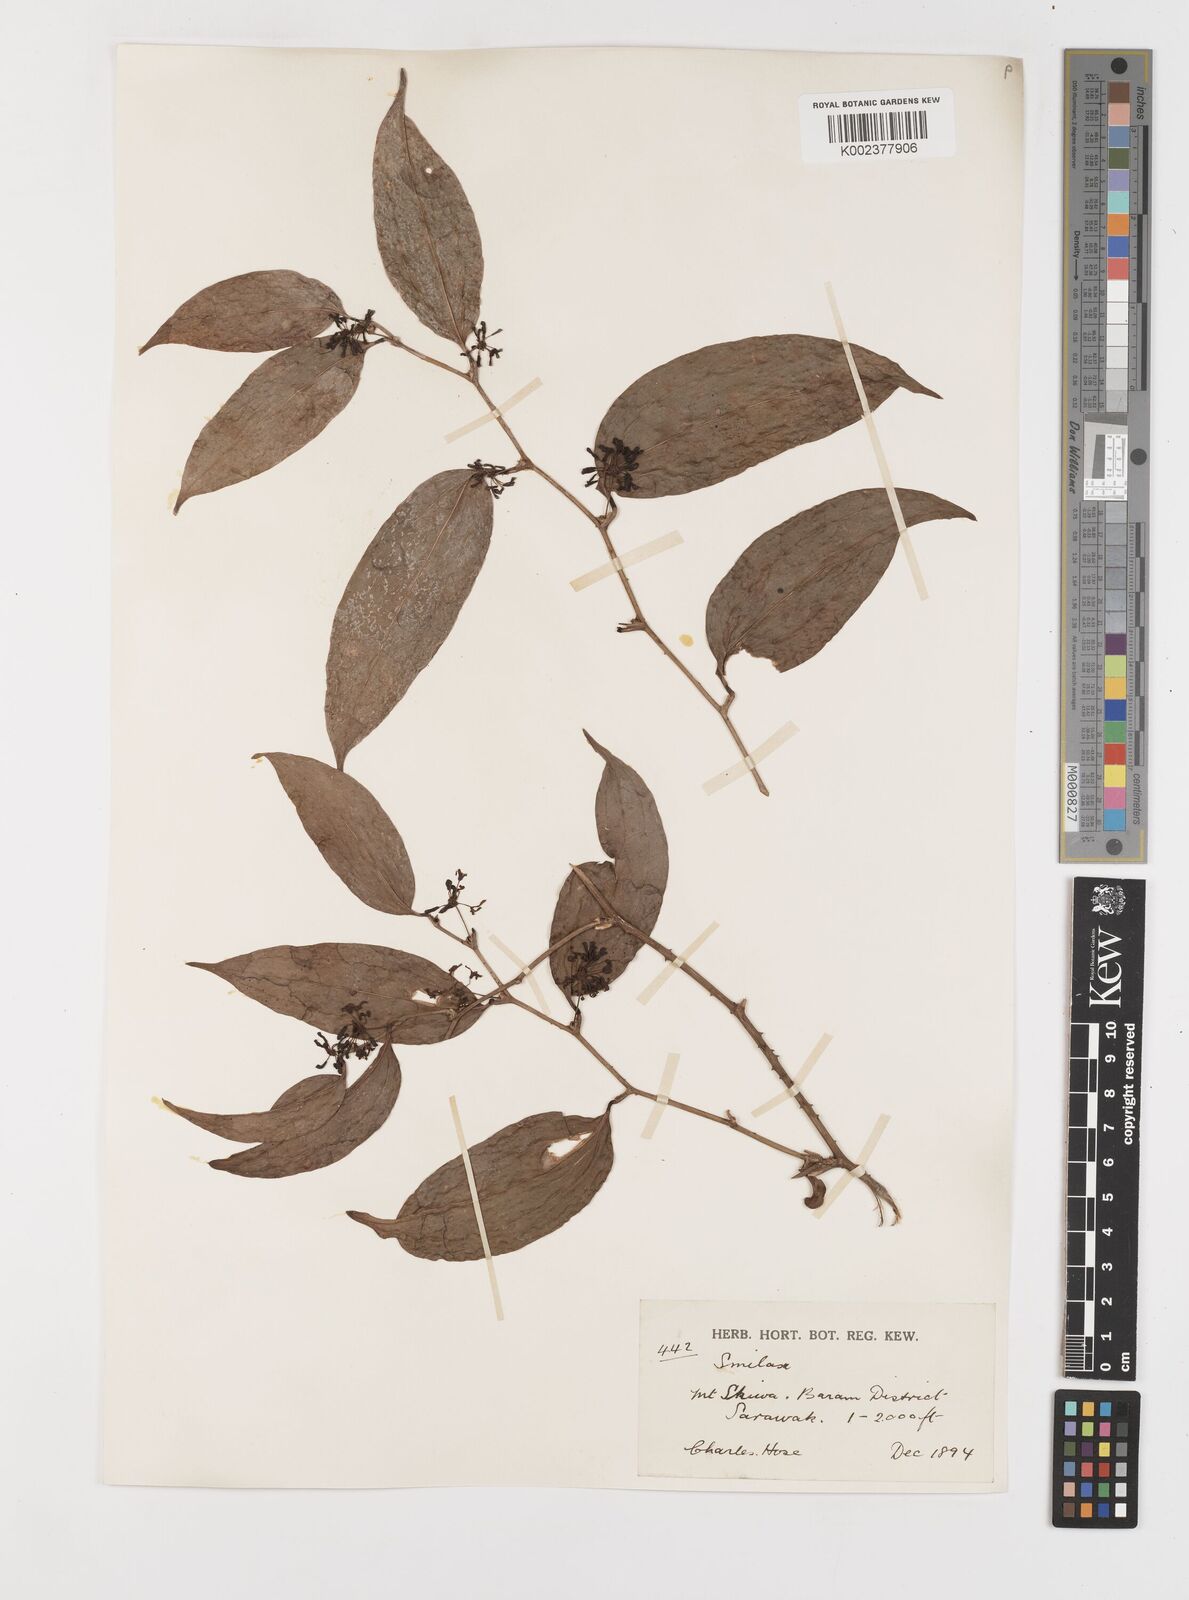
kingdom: Plantae
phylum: Tracheophyta
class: Liliopsida
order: Liliales
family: Smilacaceae
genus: Smilax
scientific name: Smilax
